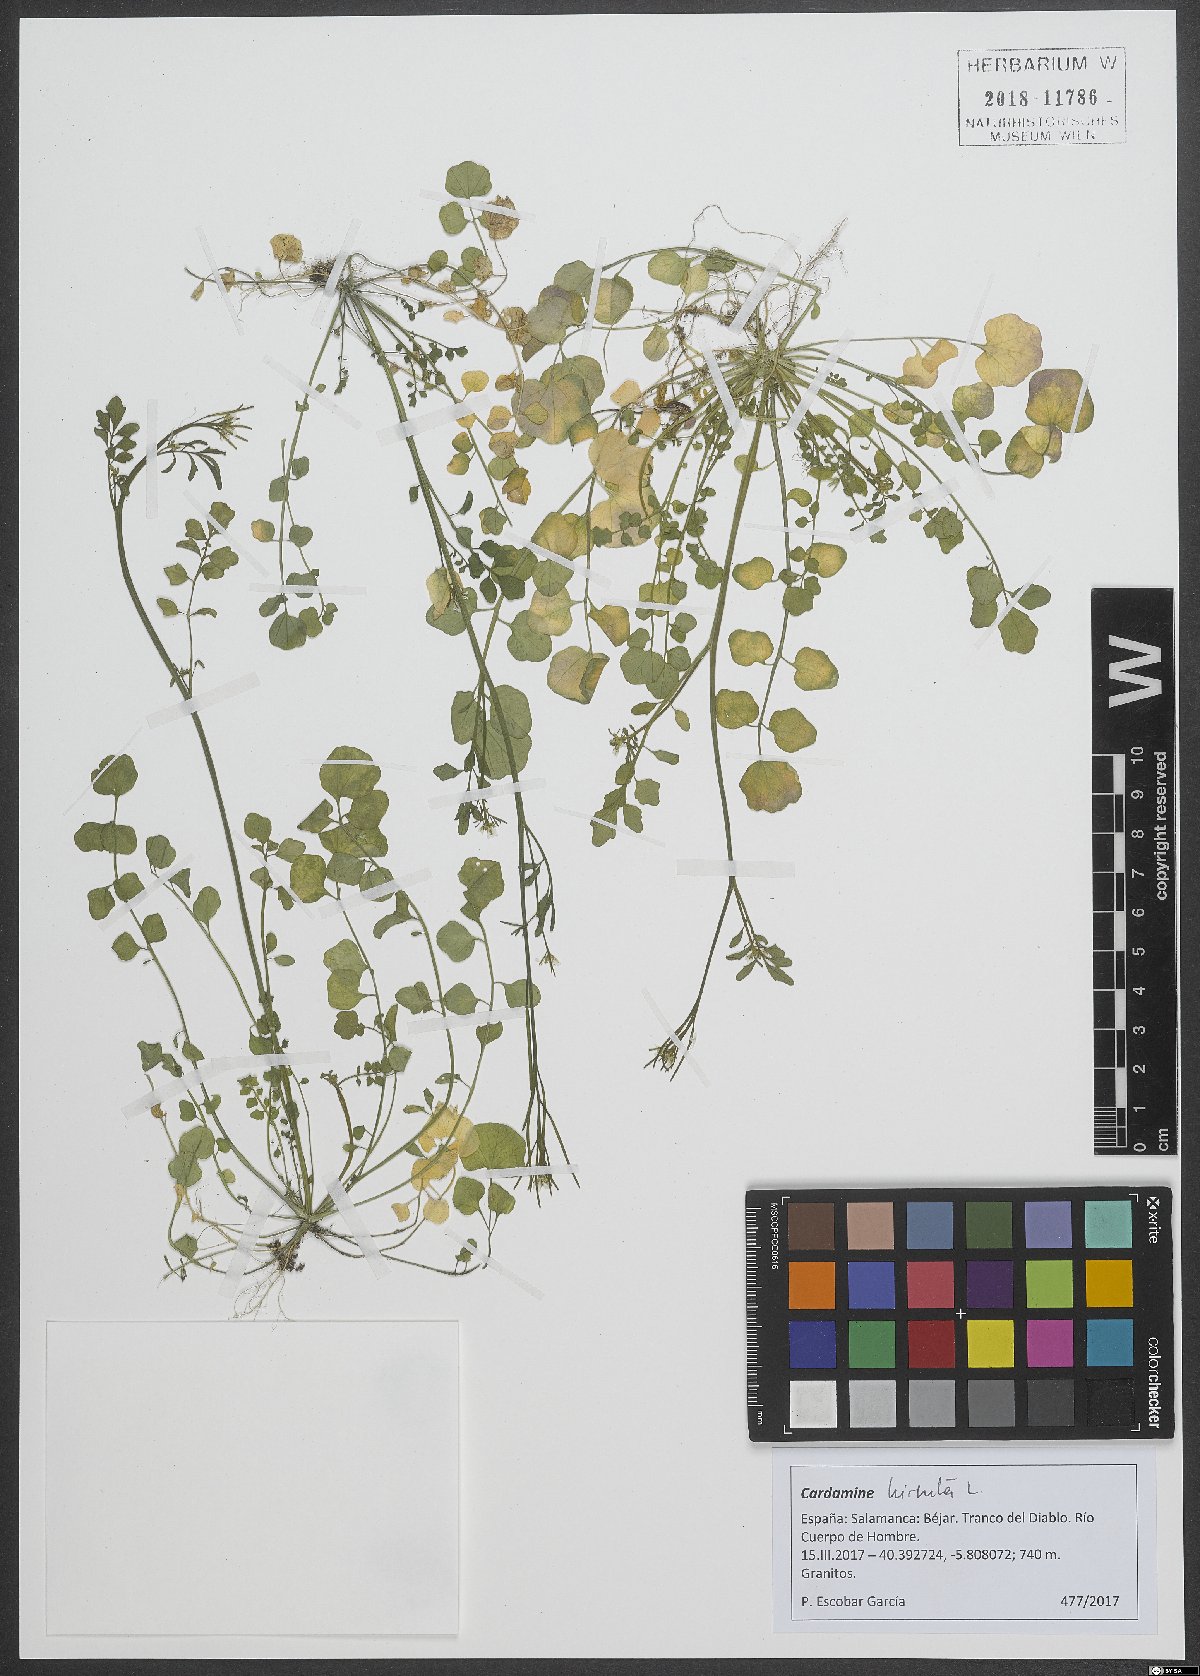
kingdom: Plantae
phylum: Tracheophyta
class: Magnoliopsida
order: Brassicales
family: Brassicaceae
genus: Cardamine
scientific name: Cardamine hirsuta
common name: Hairy bittercress
